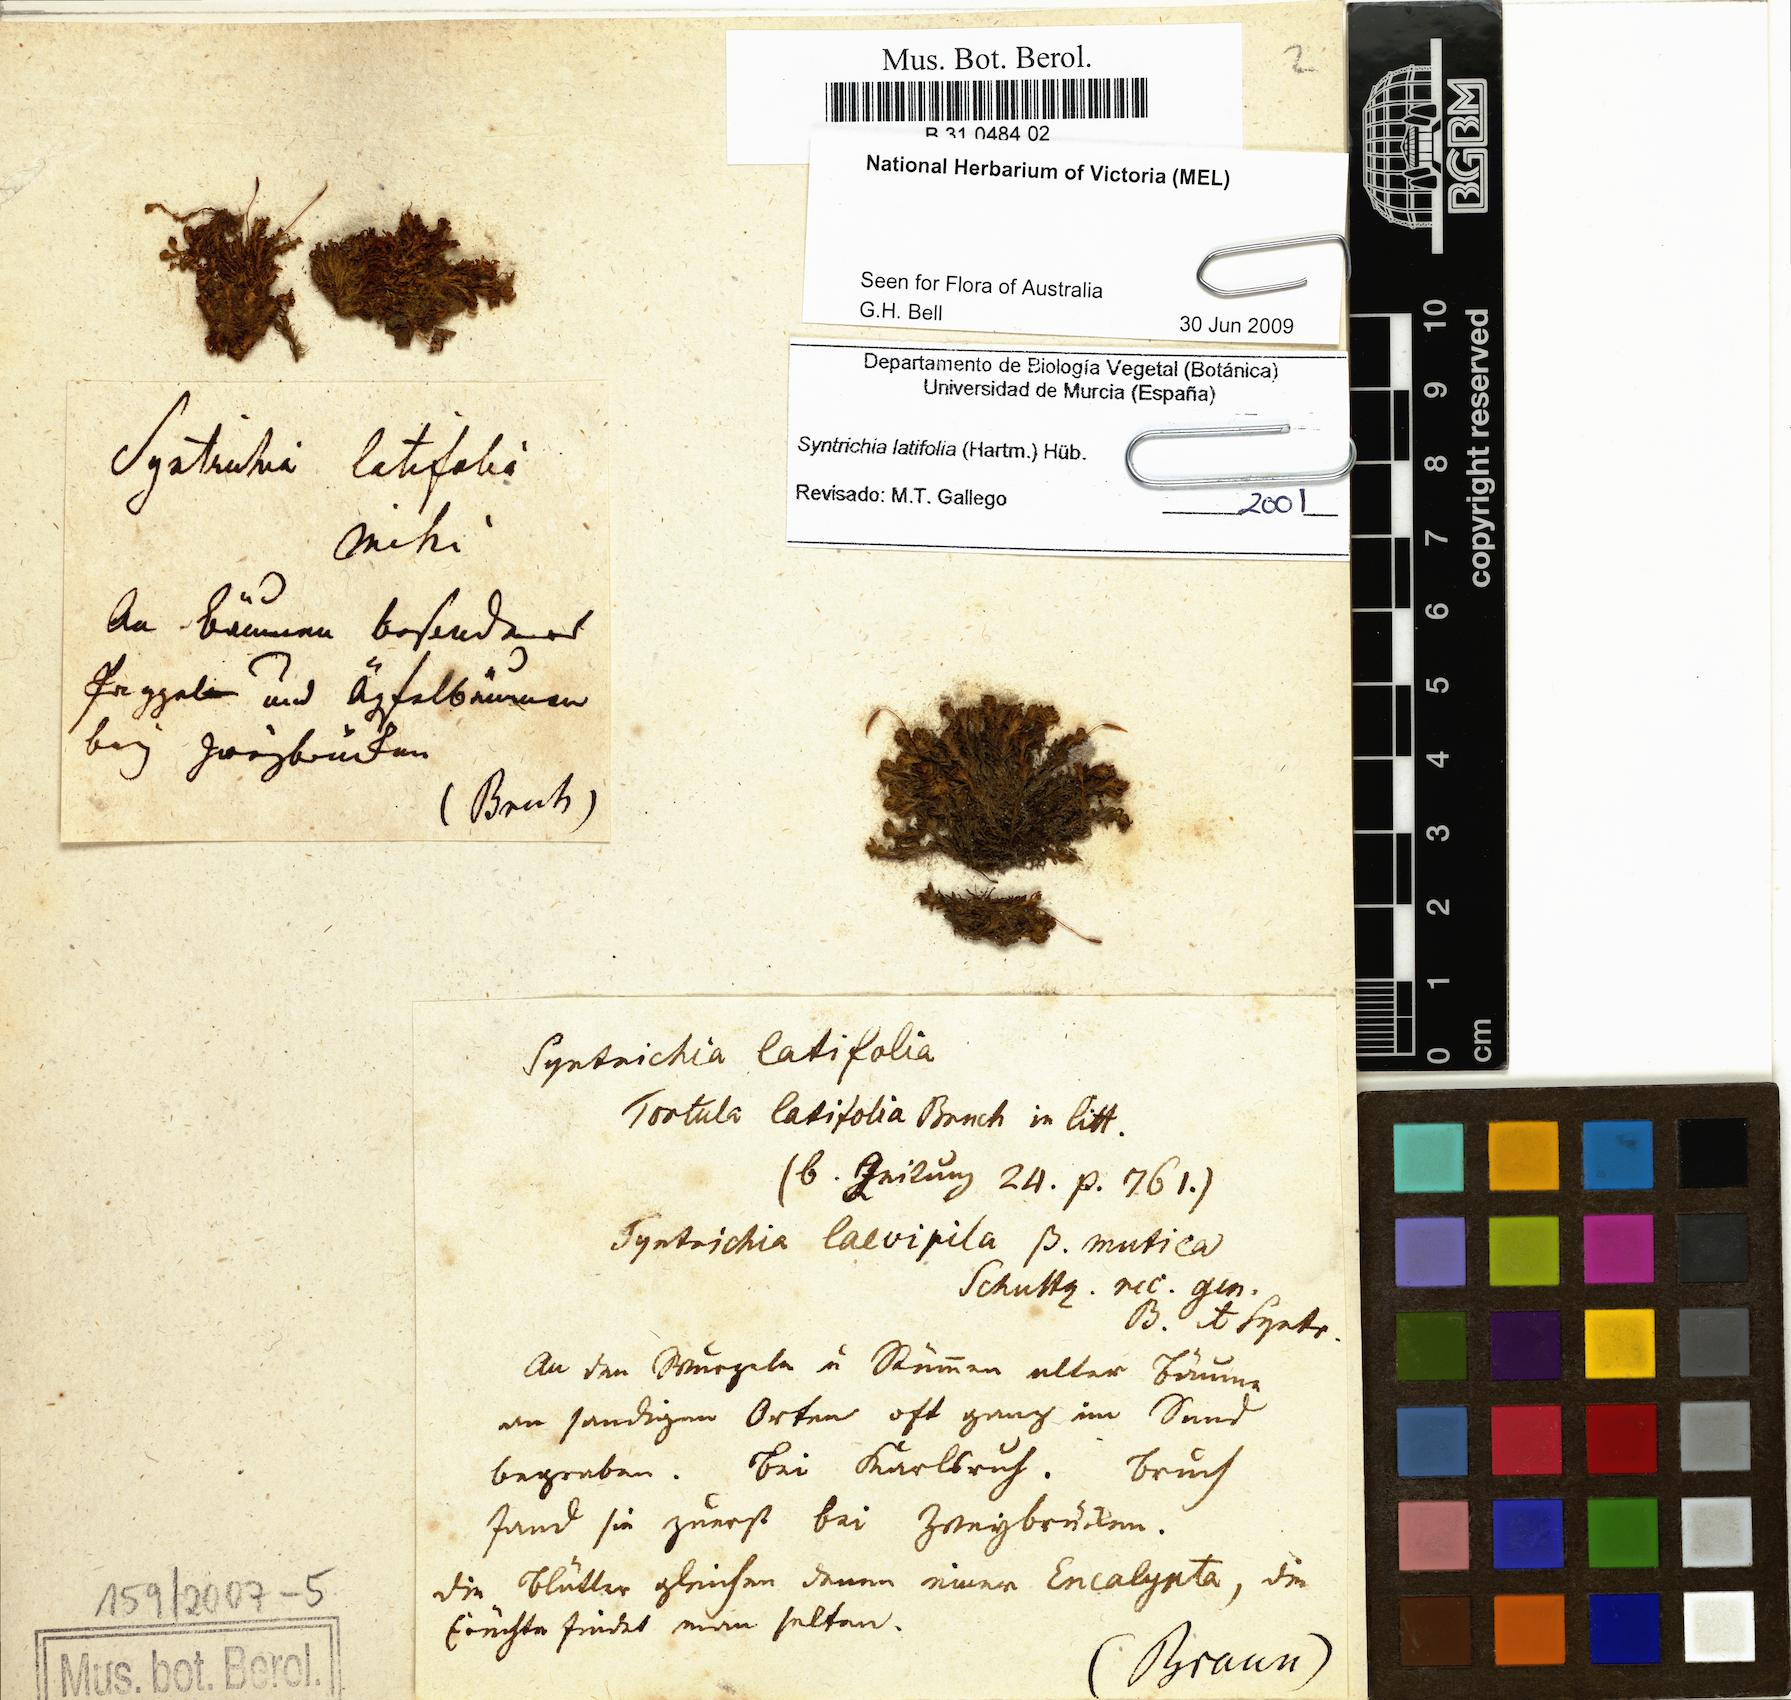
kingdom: Plantae
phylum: Bryophyta
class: Bryopsida
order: Pottiales
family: Pottiaceae
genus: Syntrichia
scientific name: Syntrichia latifolia
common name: Water screw-moss
